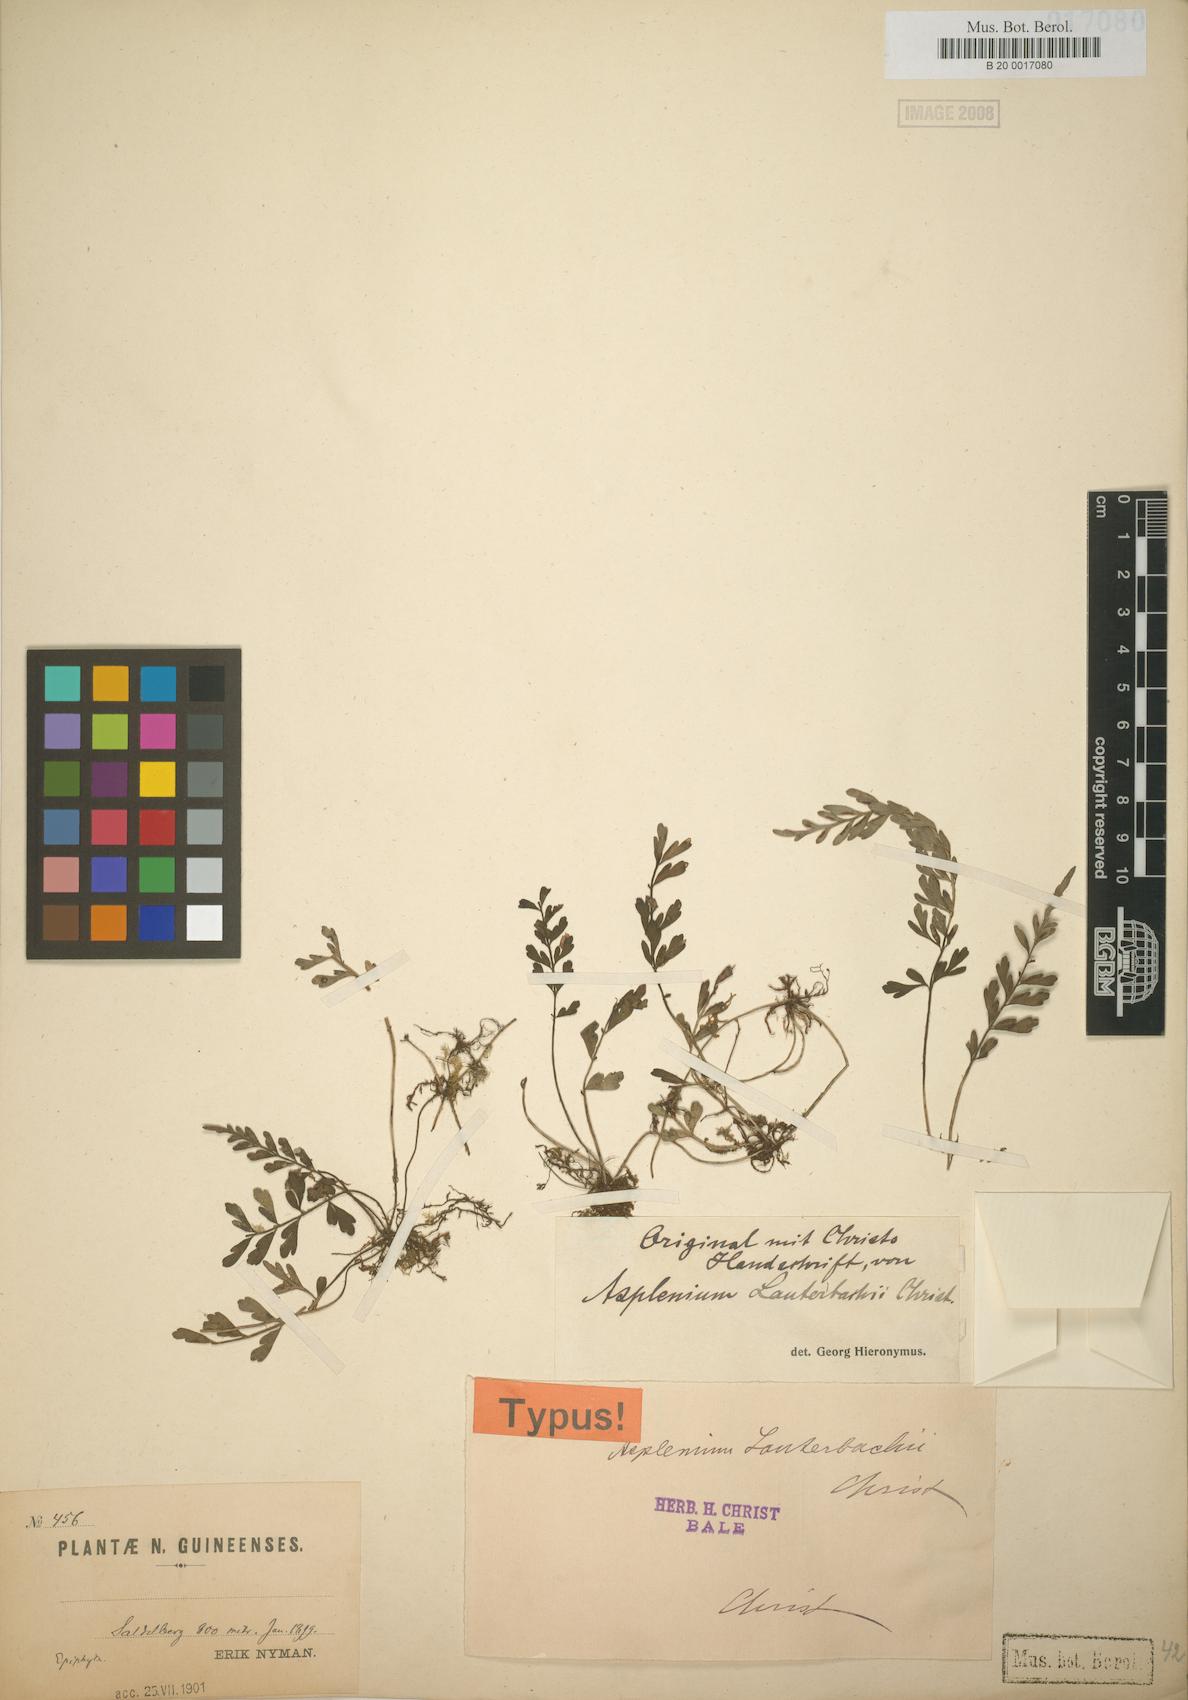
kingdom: Plantae
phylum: Tracheophyta
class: Polypodiopsida
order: Polypodiales
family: Aspleniaceae
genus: Asplenium
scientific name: Asplenium bipinnatifidum
